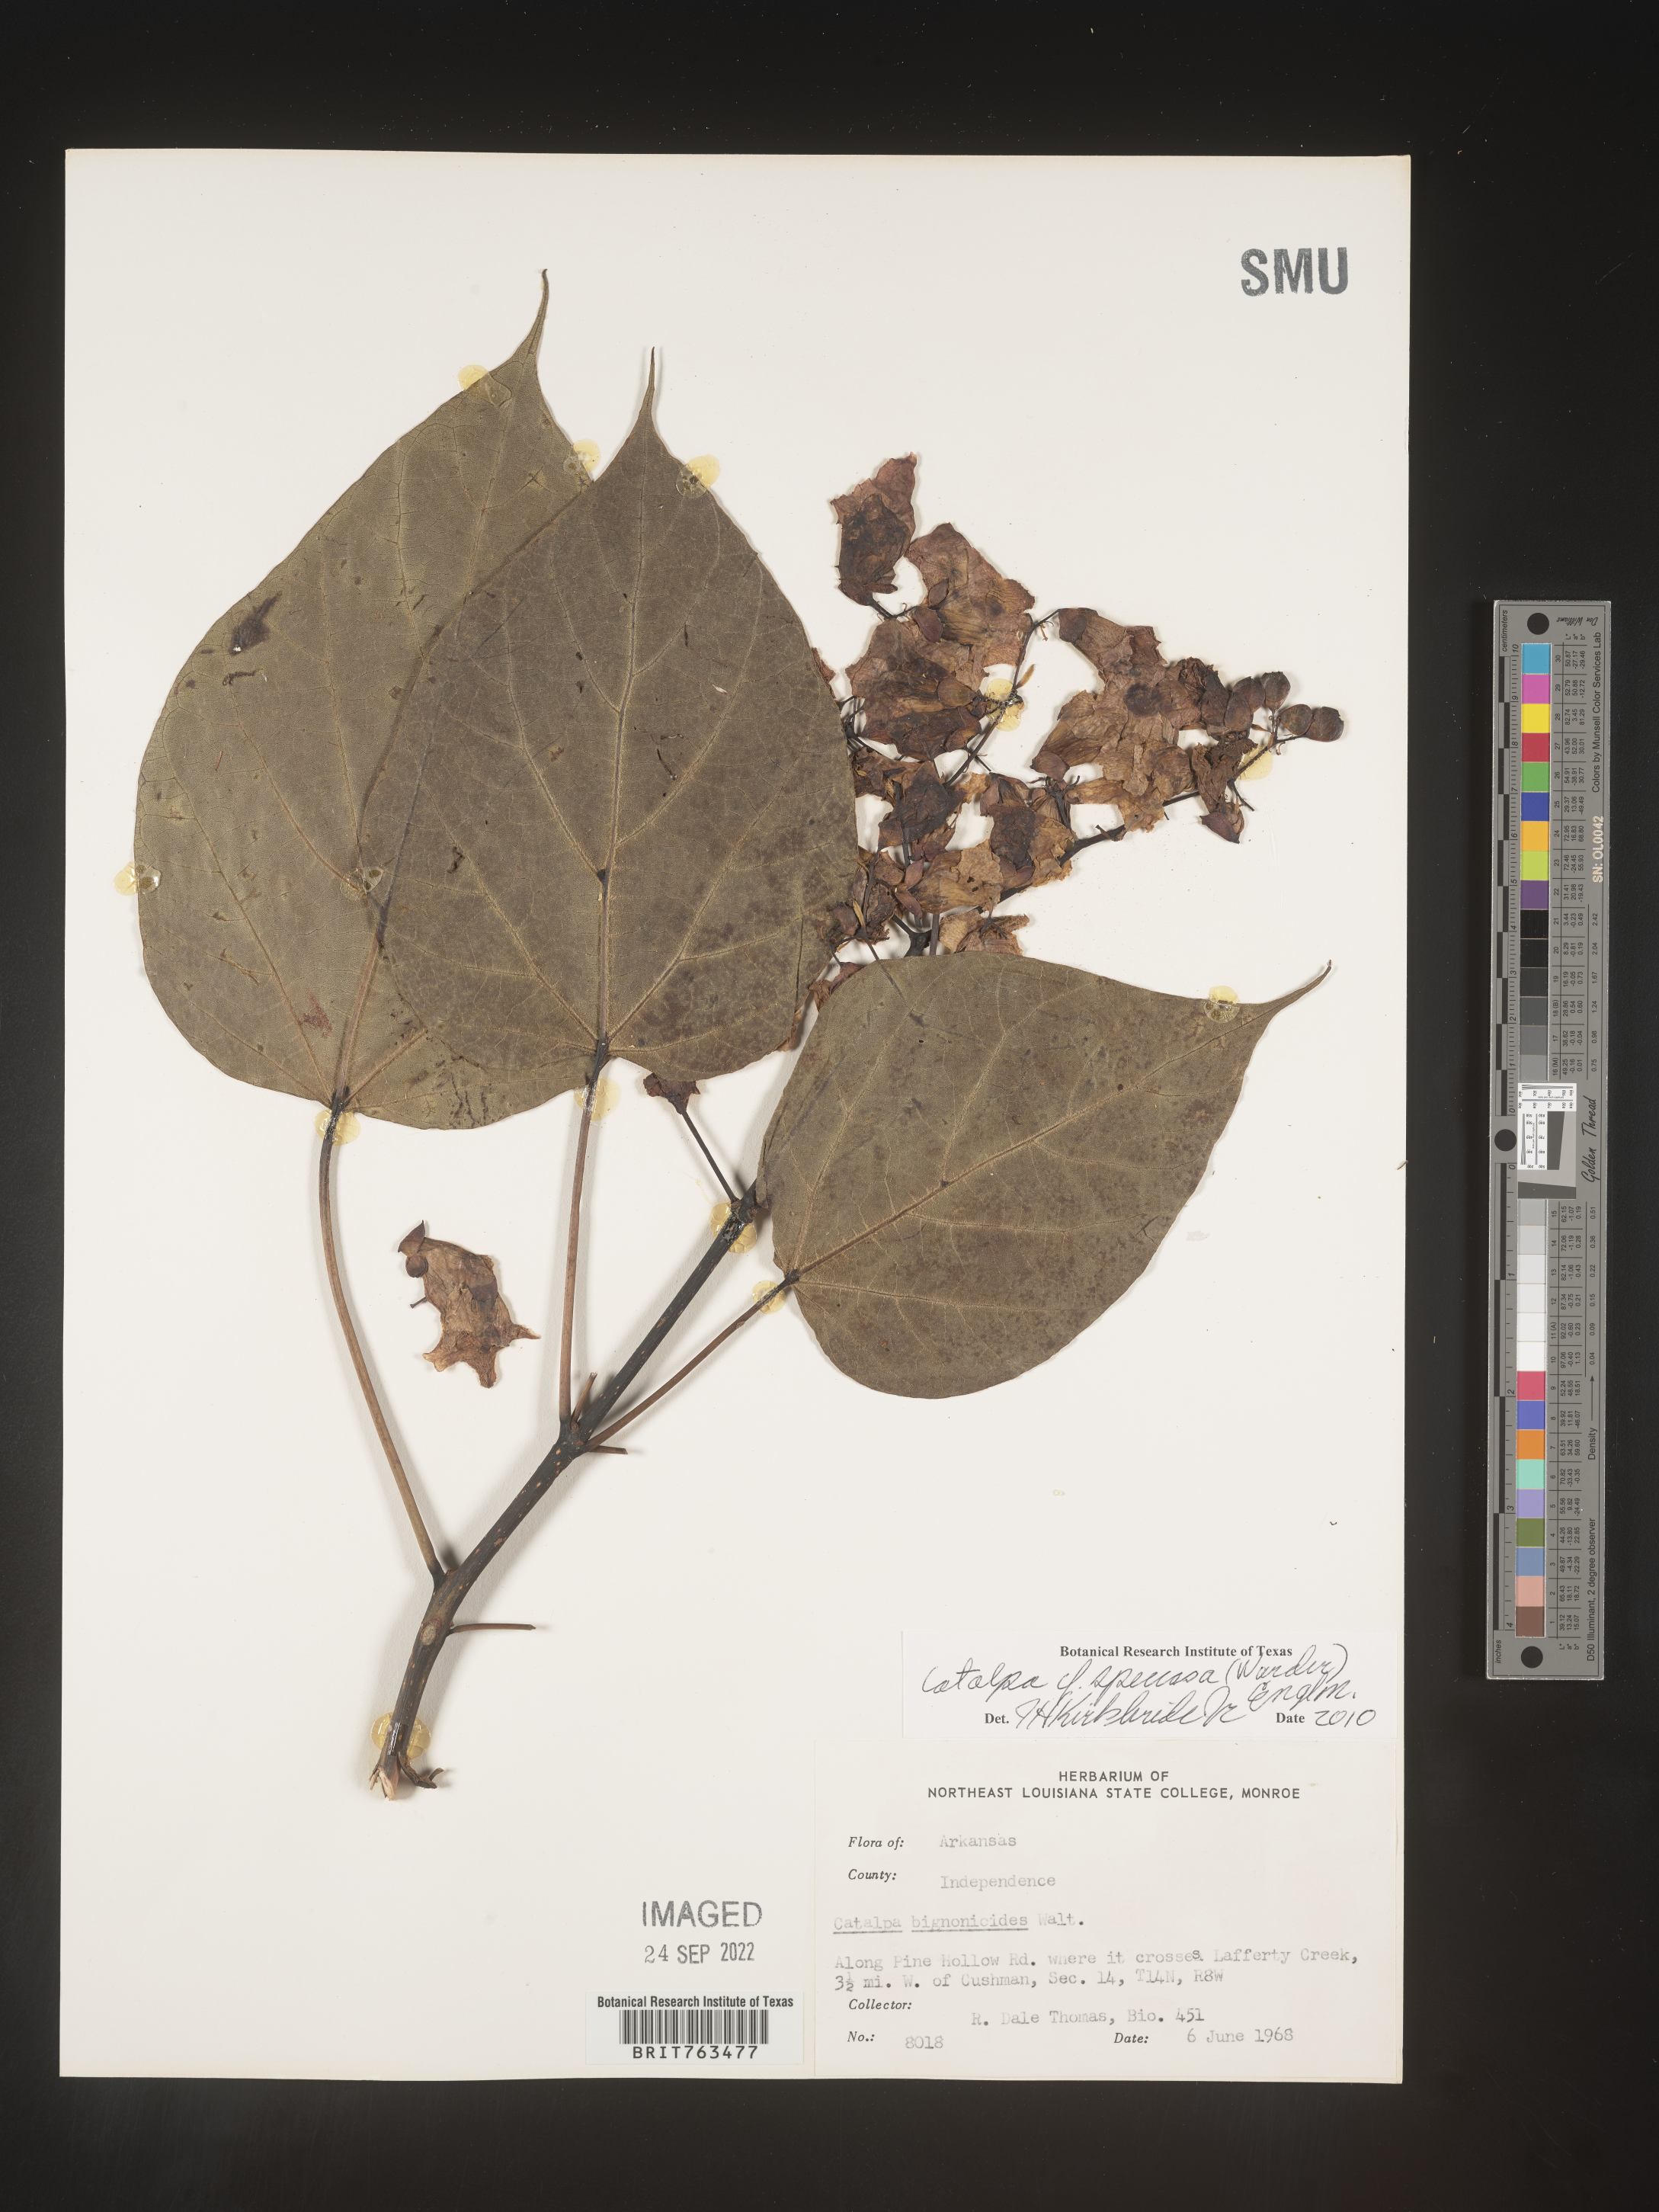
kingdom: Plantae
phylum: Tracheophyta
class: Magnoliopsida
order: Lamiales
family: Bignoniaceae
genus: Catalpa
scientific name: Catalpa speciosa
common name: Northern catalpa
